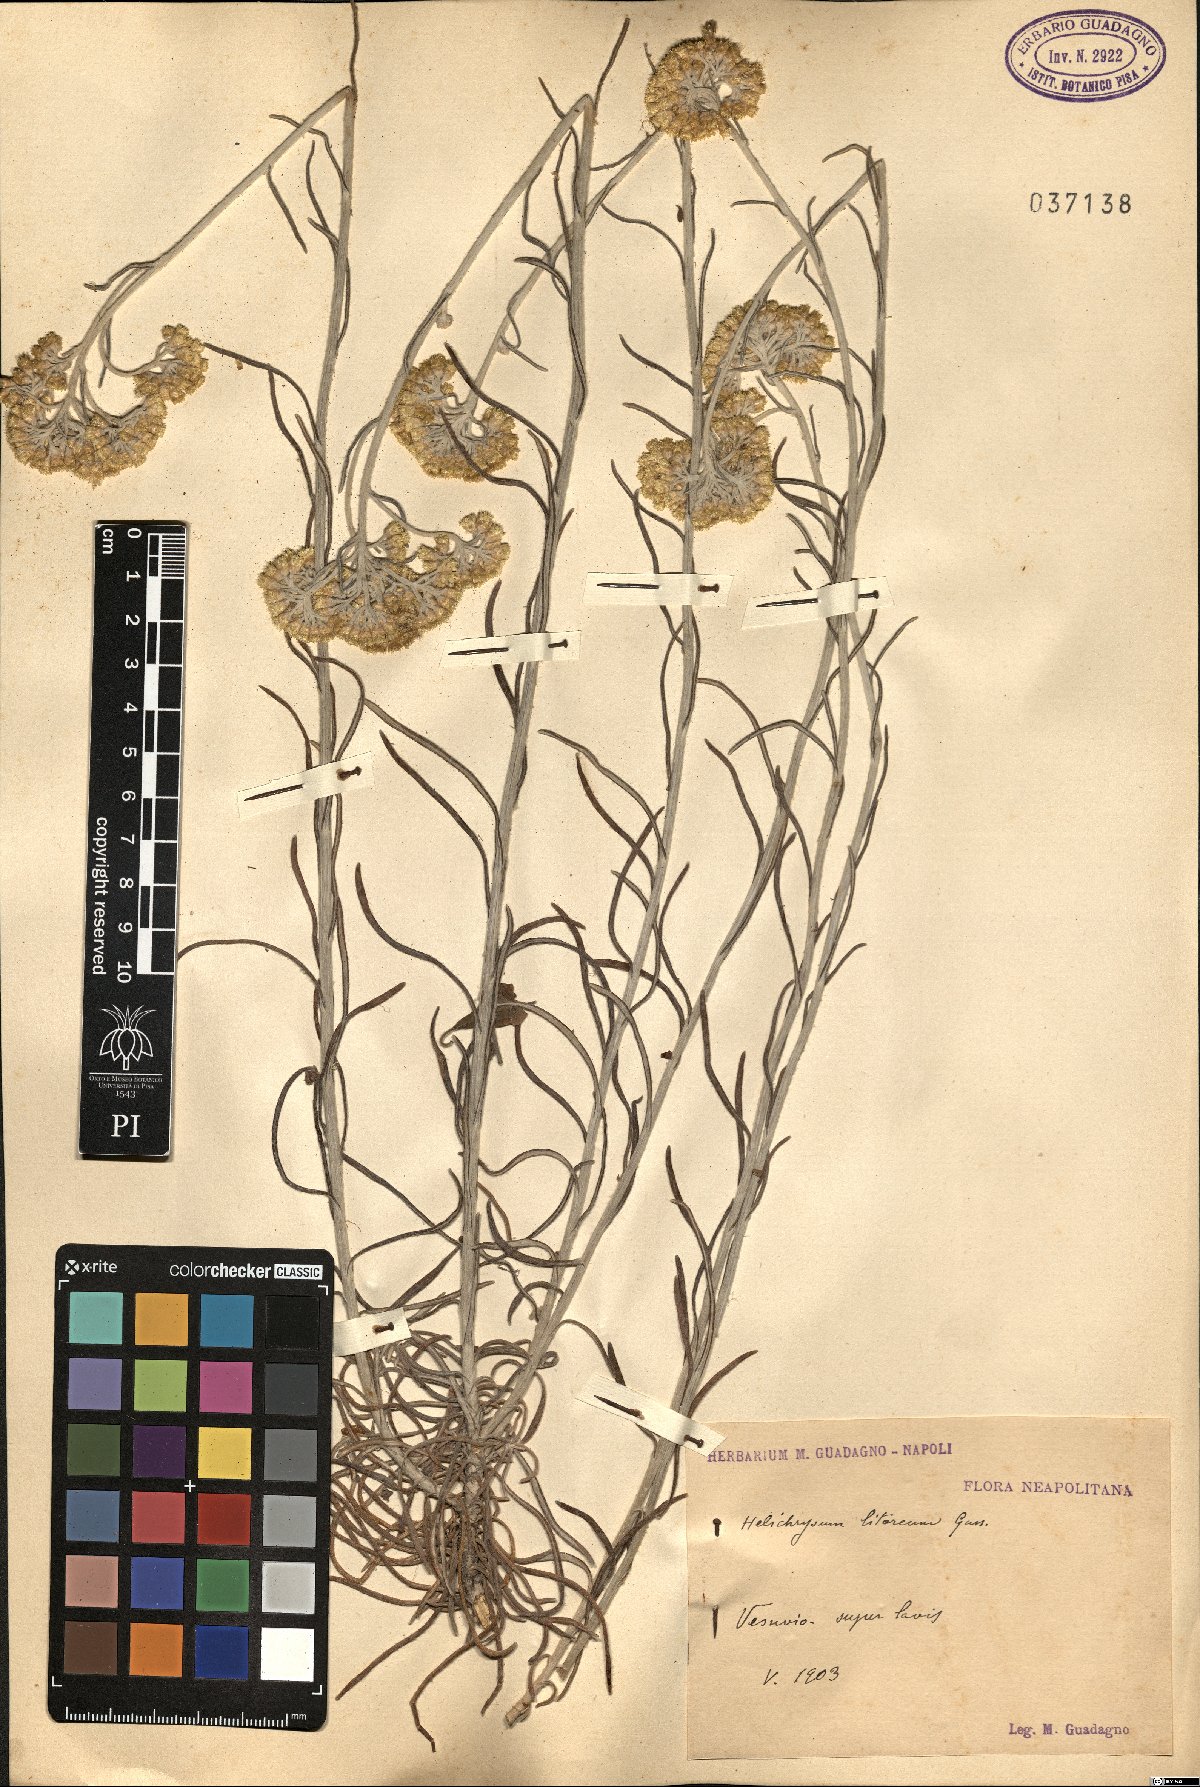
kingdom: Plantae
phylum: Tracheophyta
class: Magnoliopsida
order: Asterales
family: Asteraceae
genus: Helichrysum
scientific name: Helichrysum litoreum
